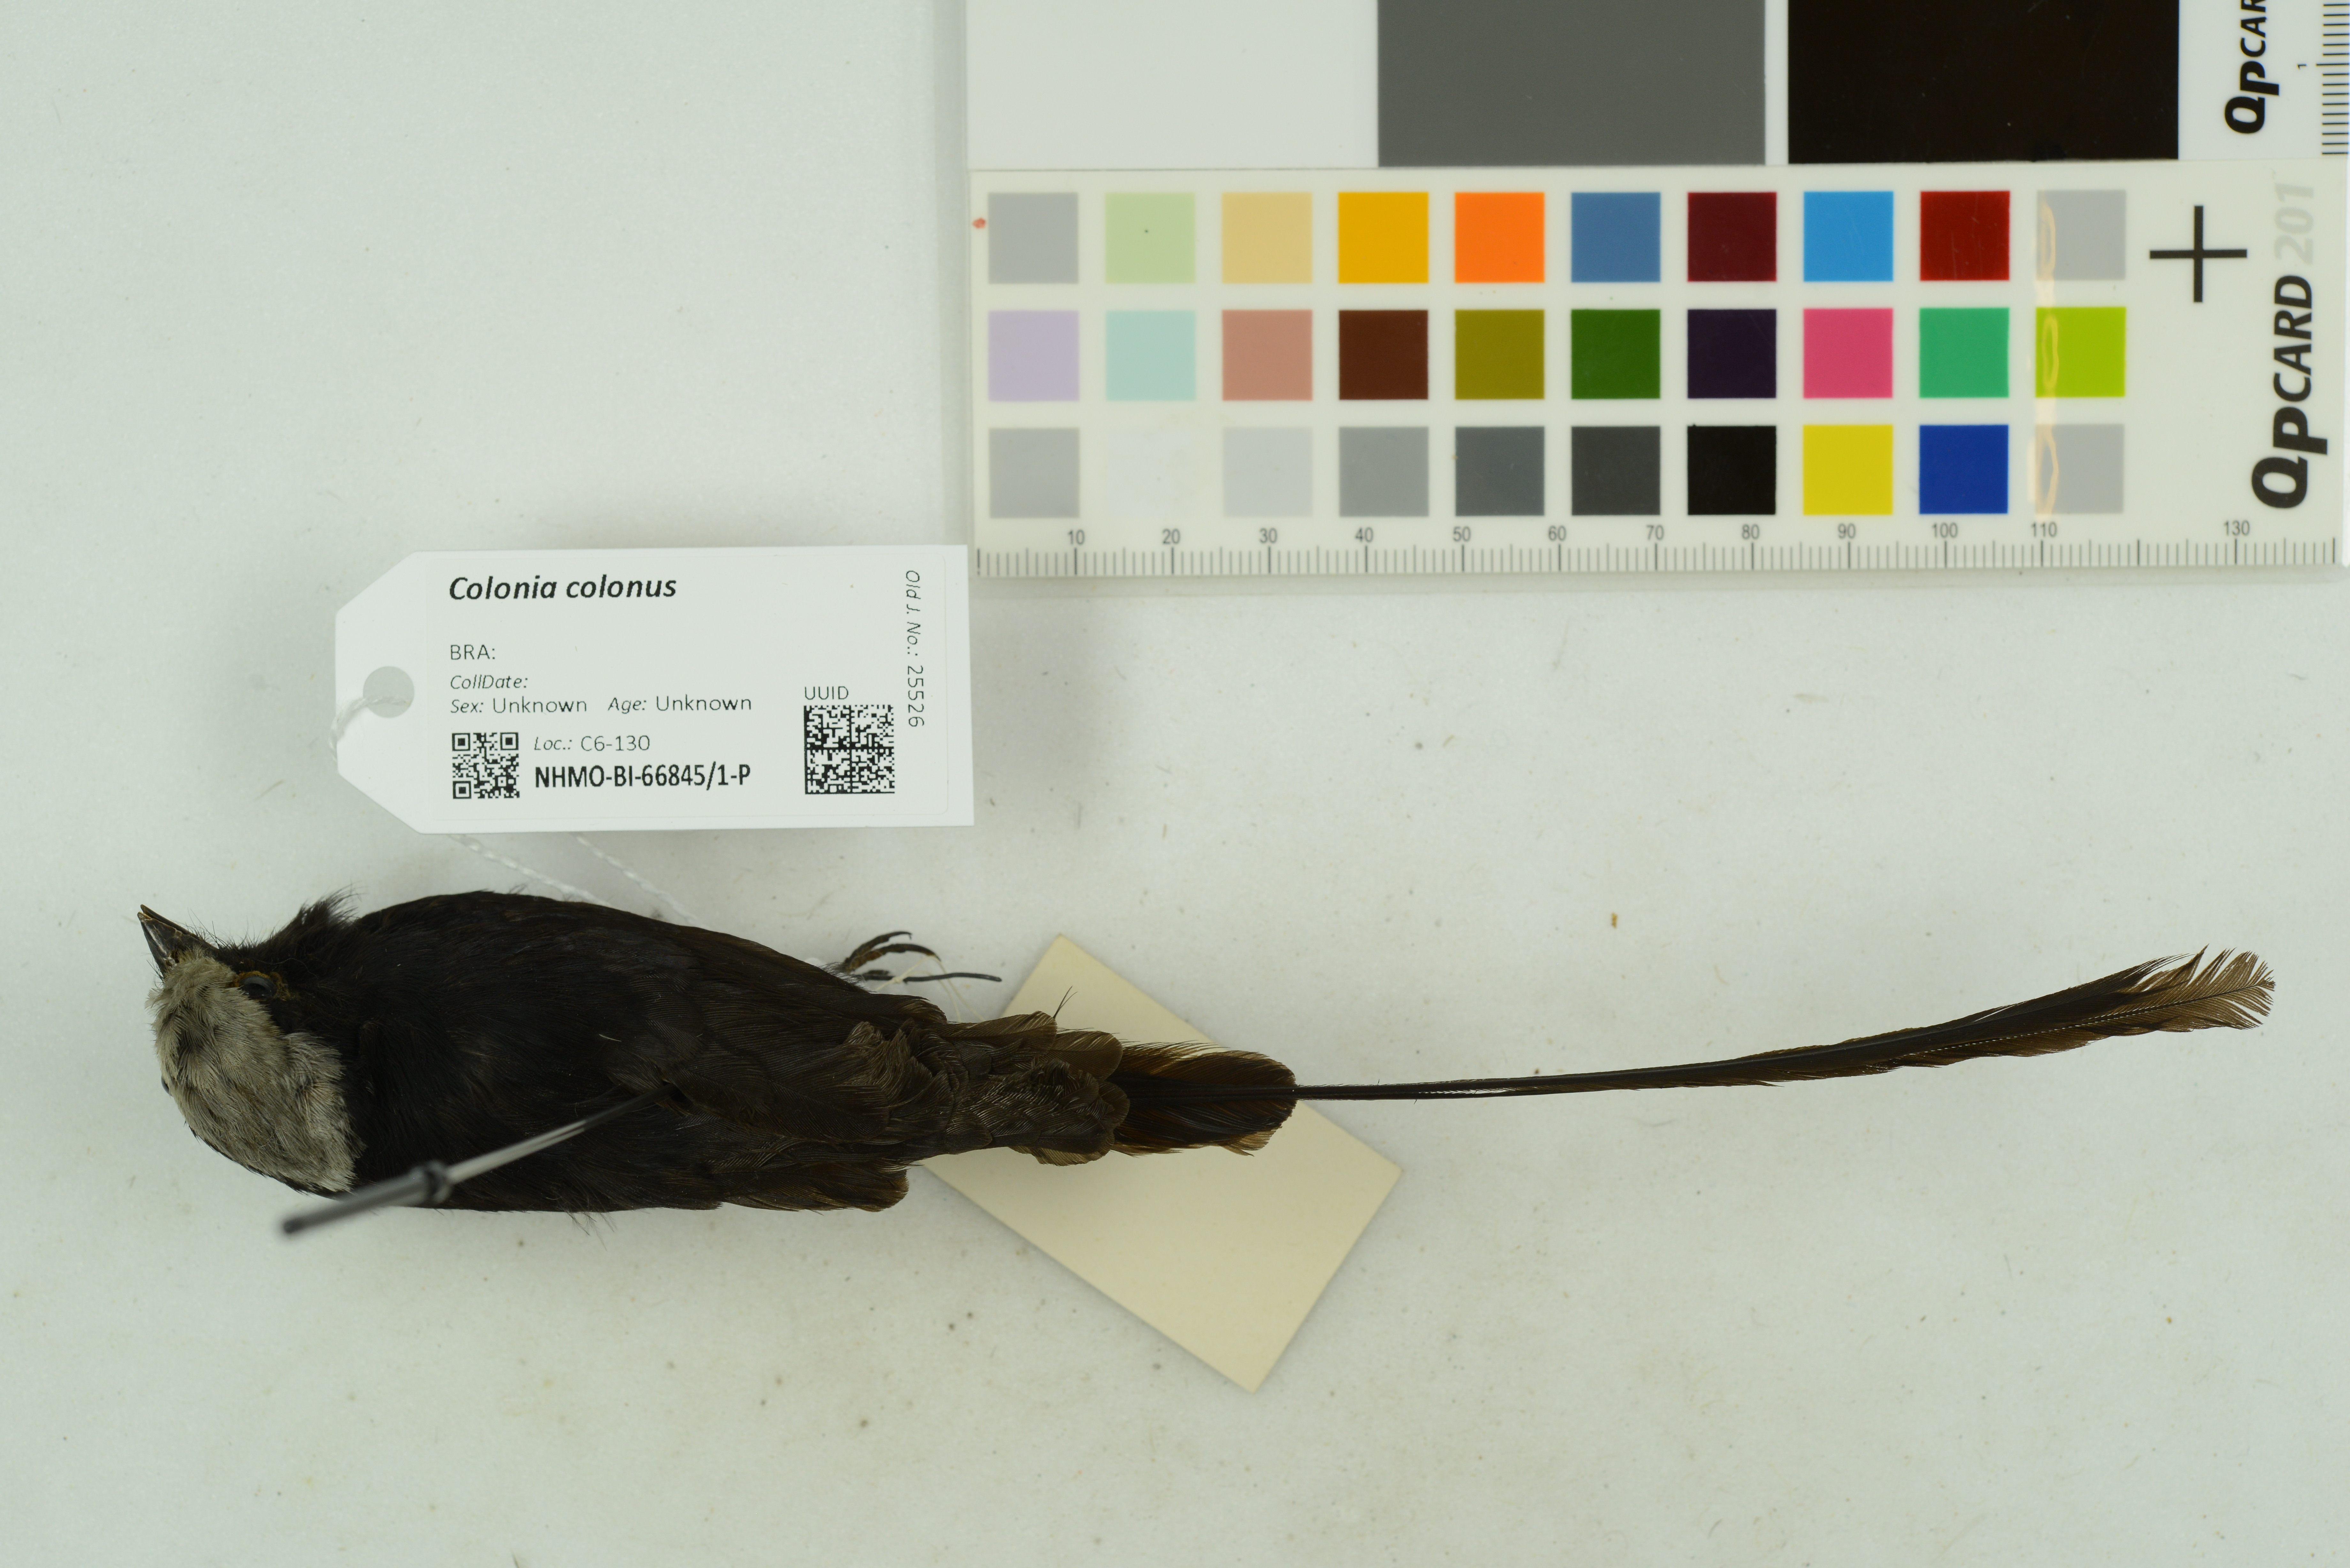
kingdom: Animalia
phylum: Chordata
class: Aves
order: Passeriformes
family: Tyrannidae
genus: Colonia
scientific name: Colonia colonus
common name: Long-tailed tyrant
